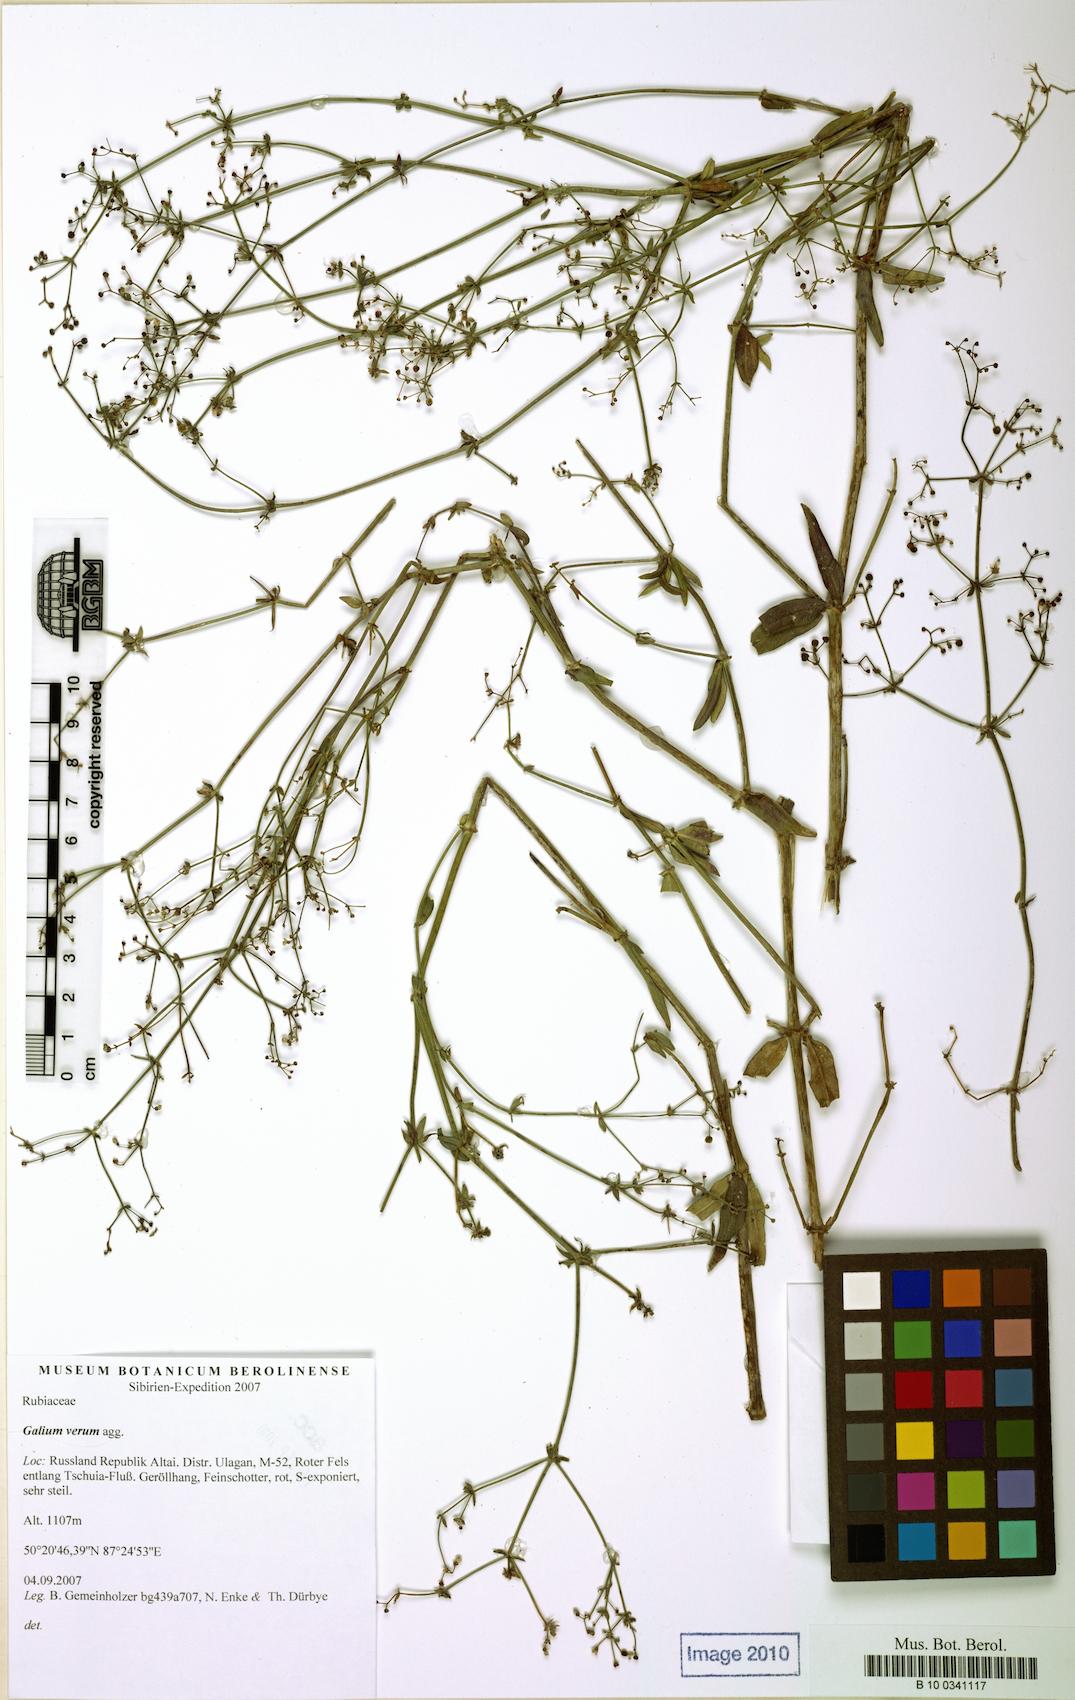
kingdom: Plantae
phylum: Tracheophyta
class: Magnoliopsida
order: Gentianales
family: Rubiaceae
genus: Galium
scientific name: Galium
